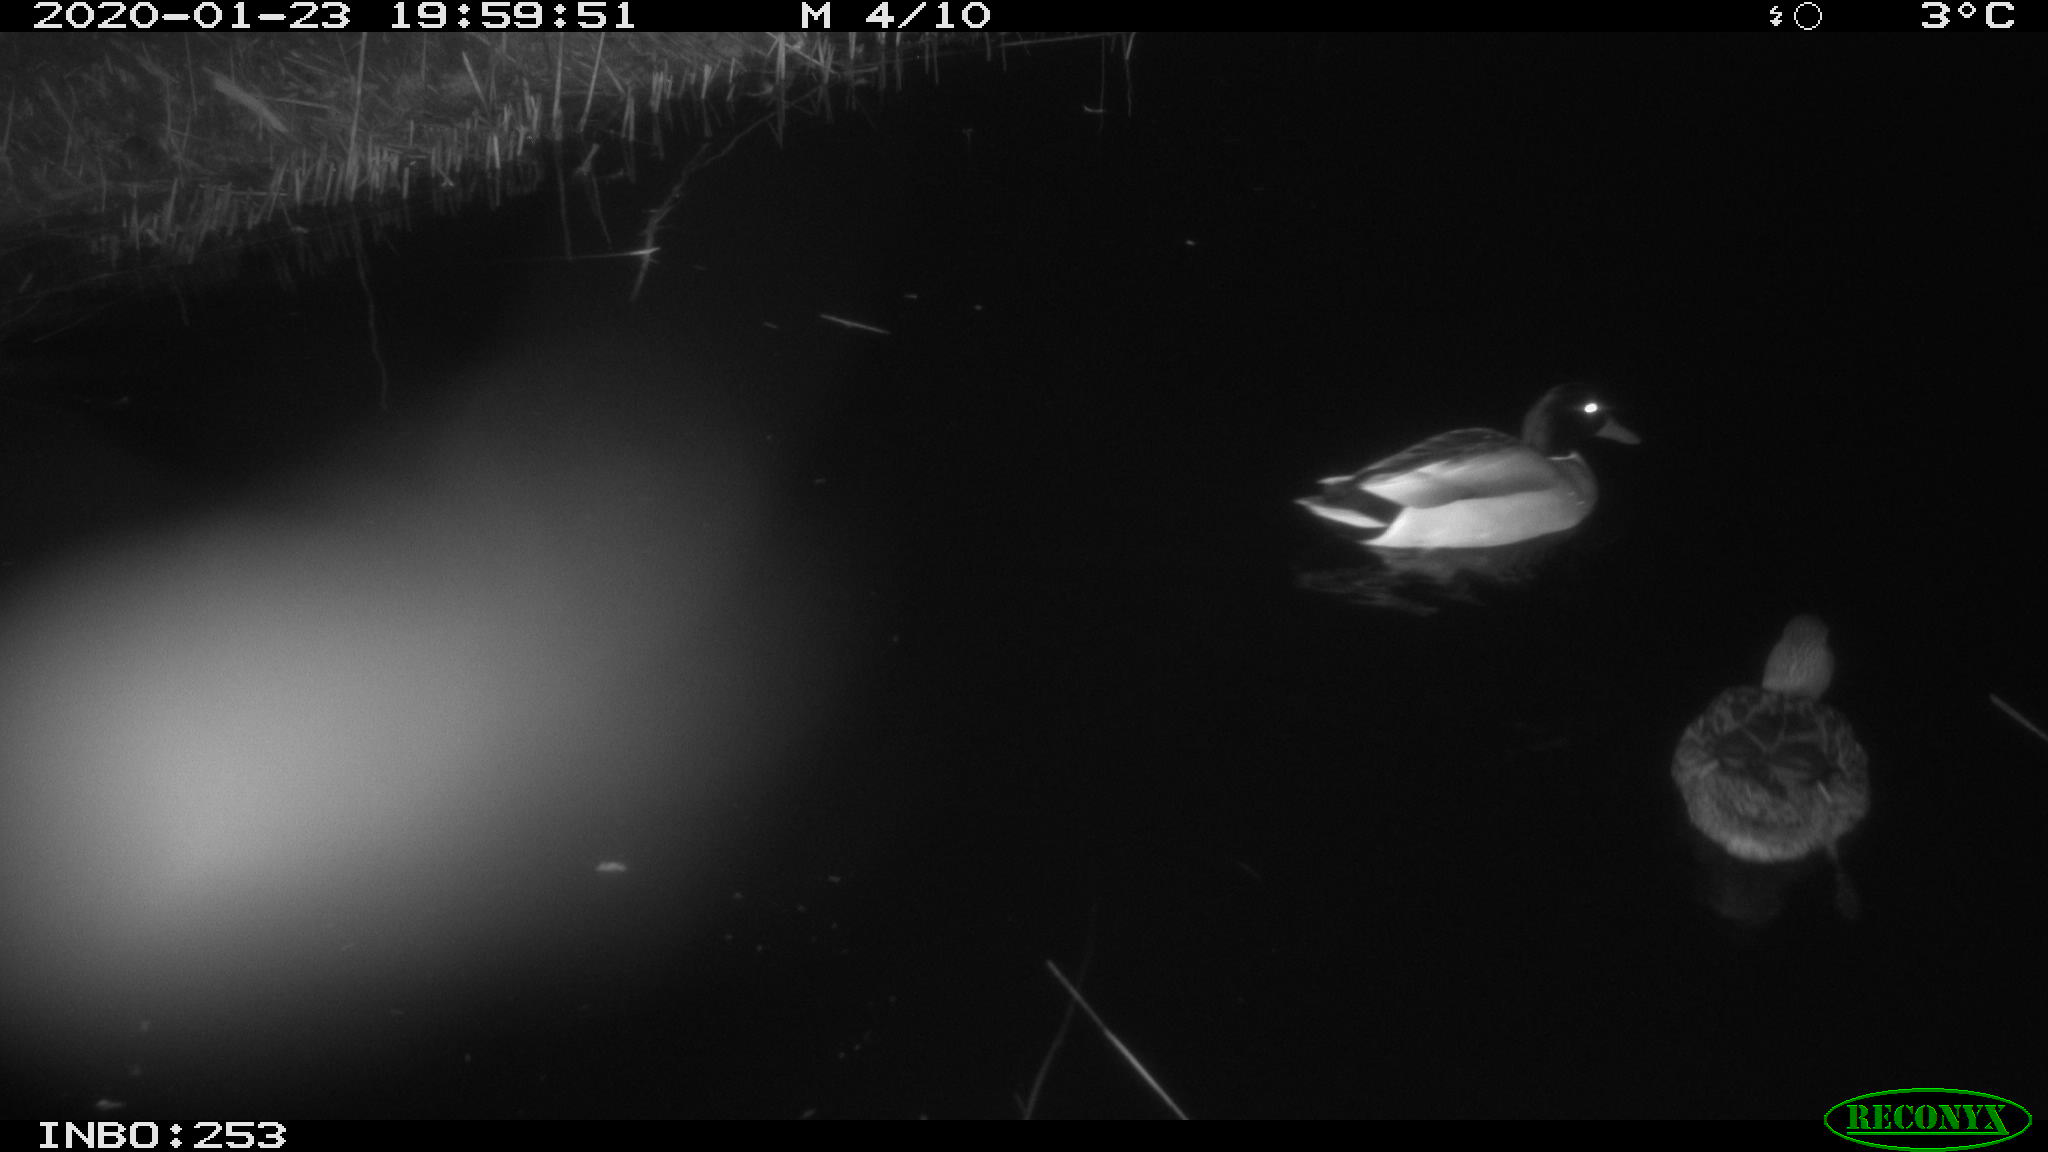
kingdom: Animalia
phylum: Chordata
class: Aves
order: Anseriformes
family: Anatidae
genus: Anas
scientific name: Anas platyrhynchos
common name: Mallard
